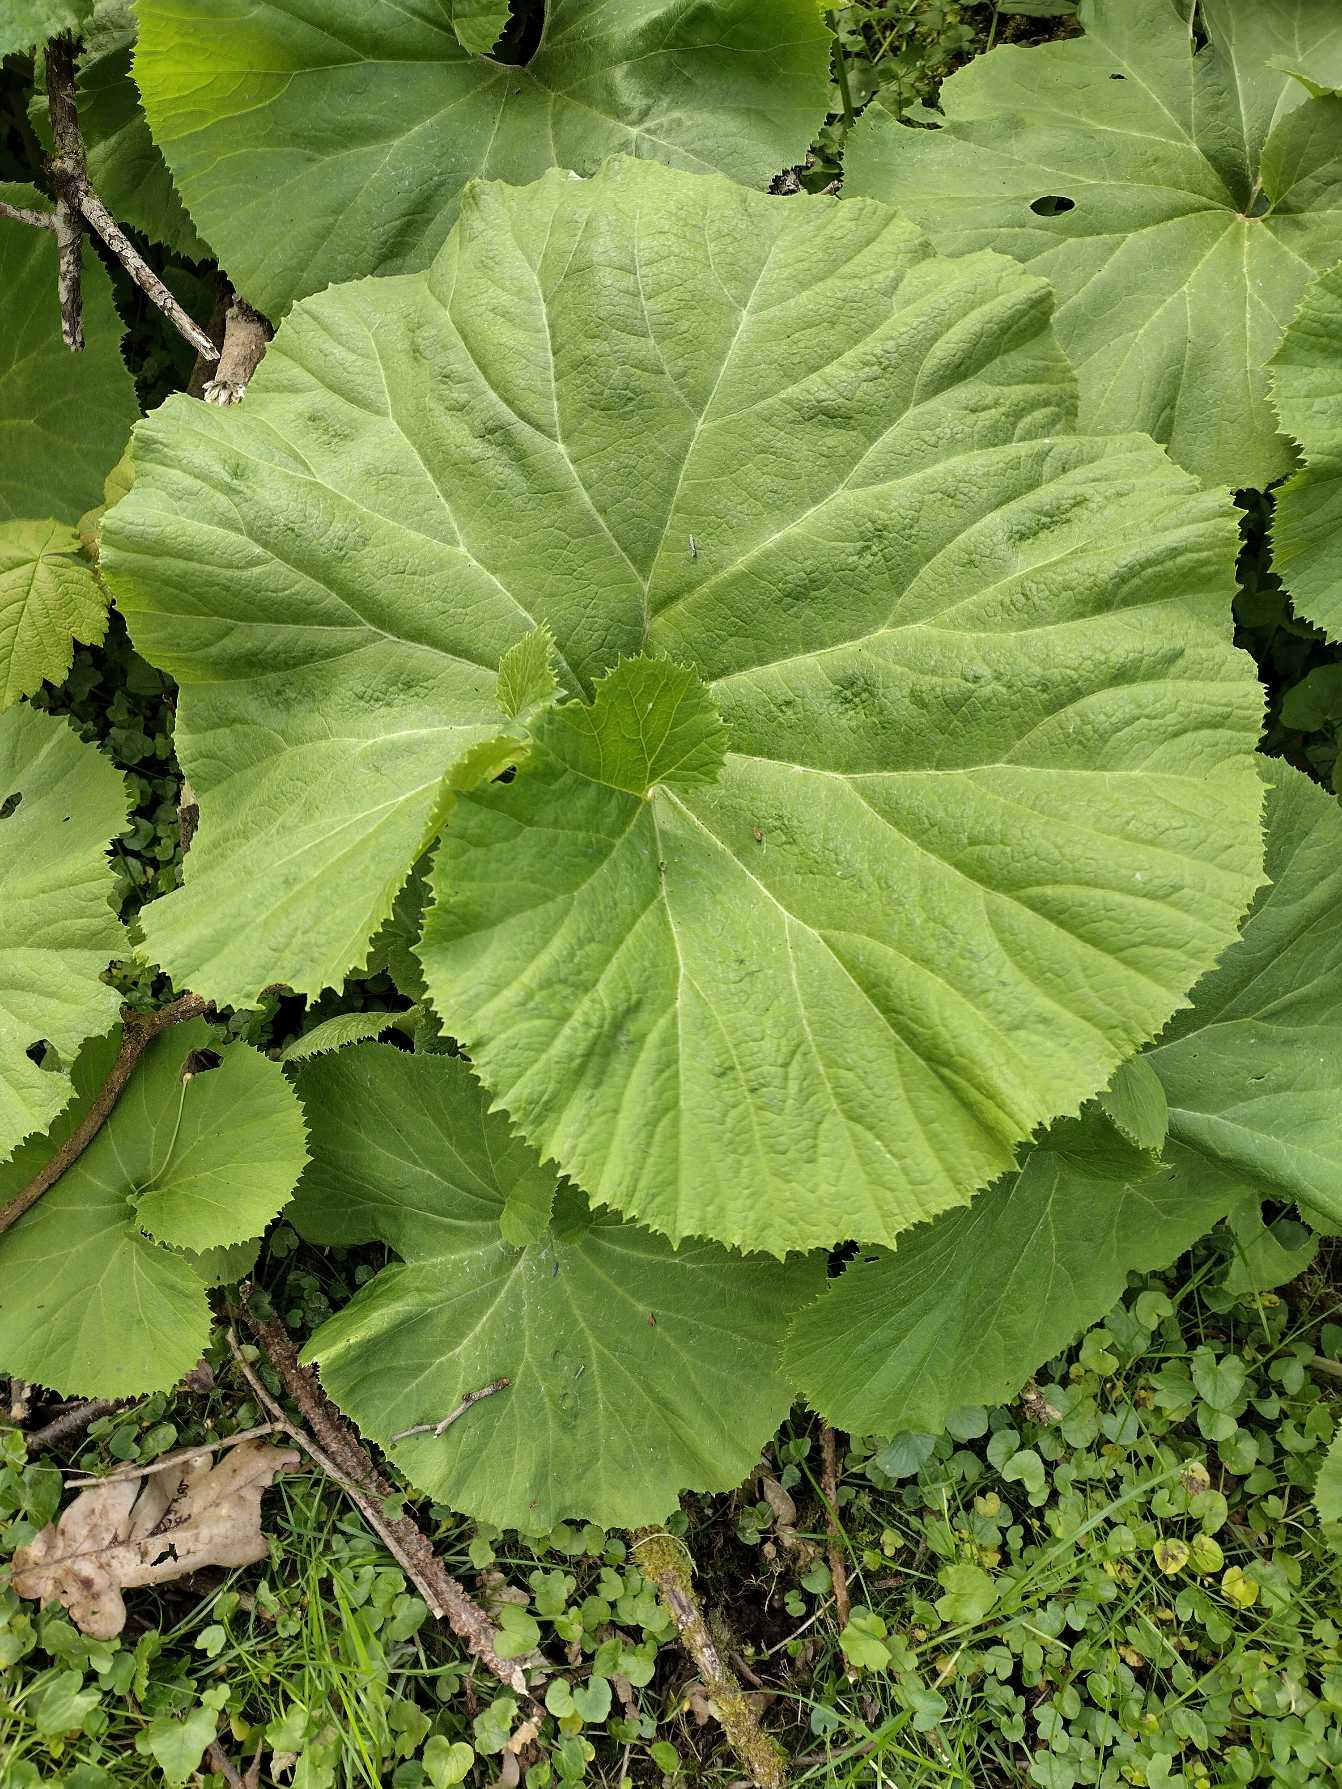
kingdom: Plantae
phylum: Tracheophyta
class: Magnoliopsida
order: Asterales
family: Asteraceae
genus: Petasites
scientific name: Petasites japonicus
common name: Japansk hestehov
